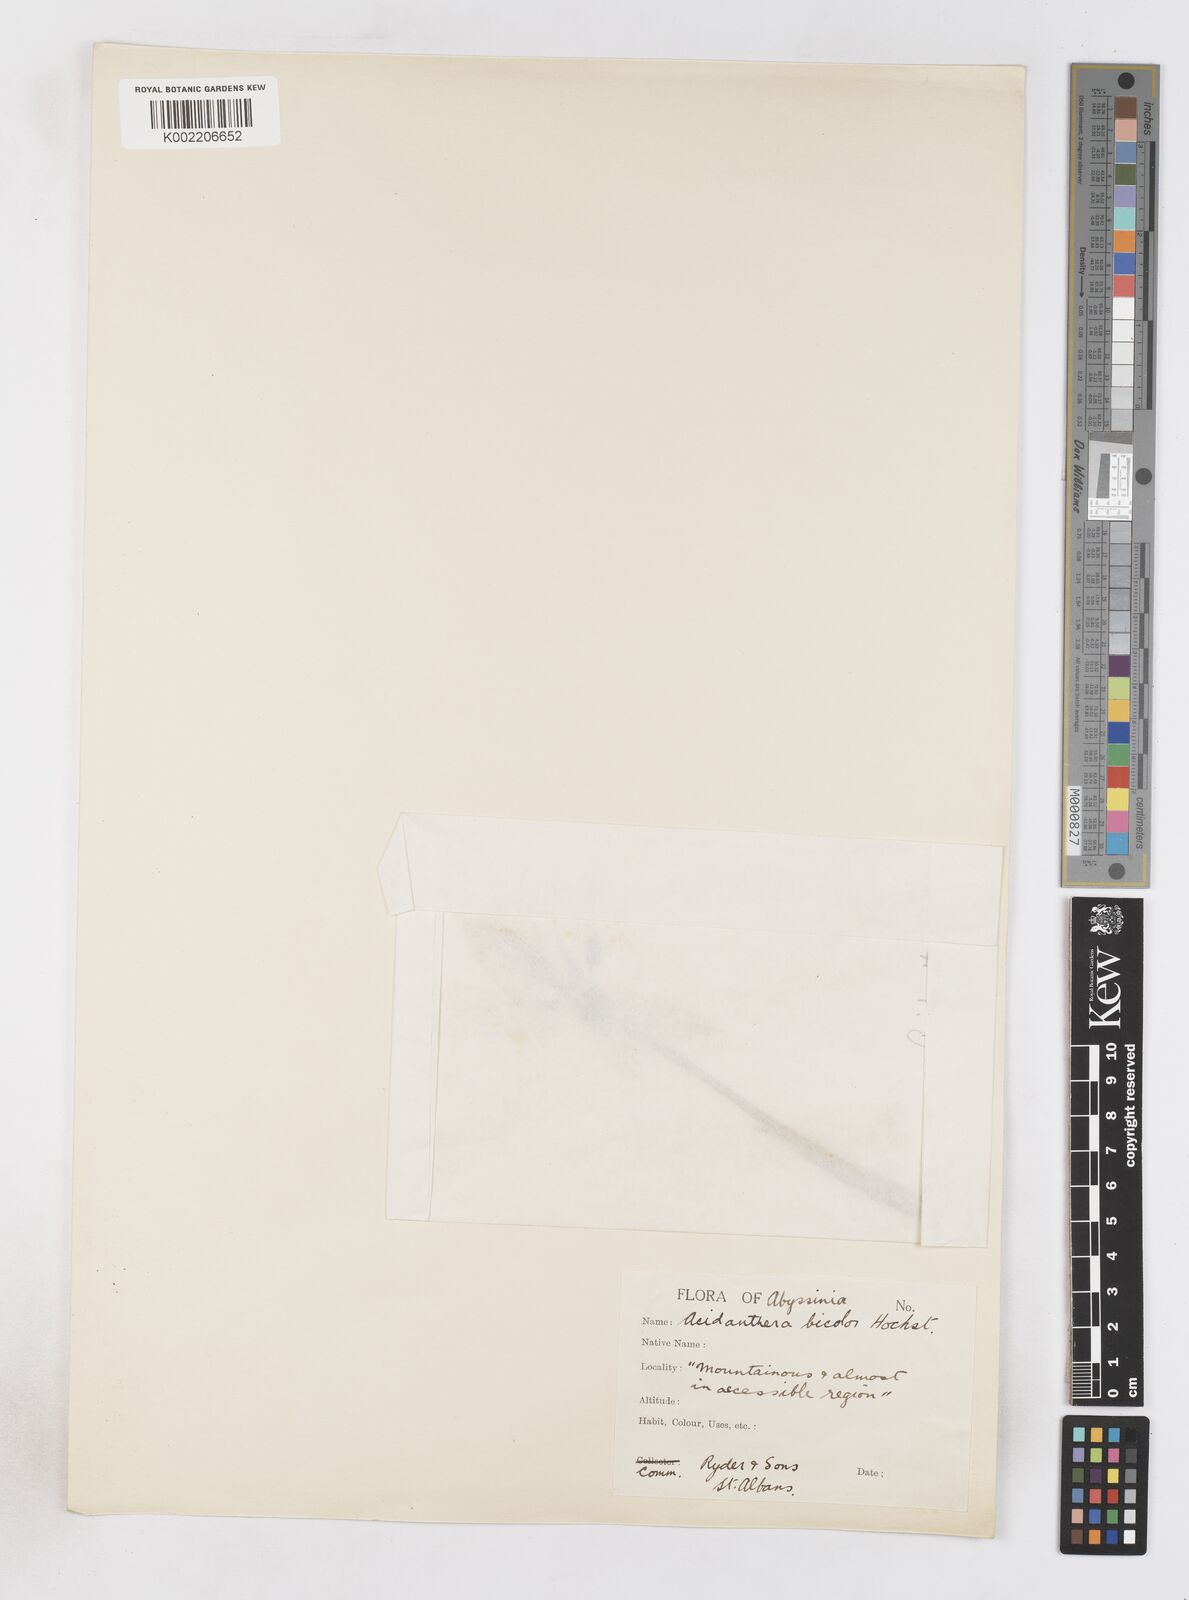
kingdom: Plantae
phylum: Tracheophyta
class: Liliopsida
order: Asparagales
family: Iridaceae
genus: Gladiolus
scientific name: Gladiolus murielae
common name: Acidanthera
